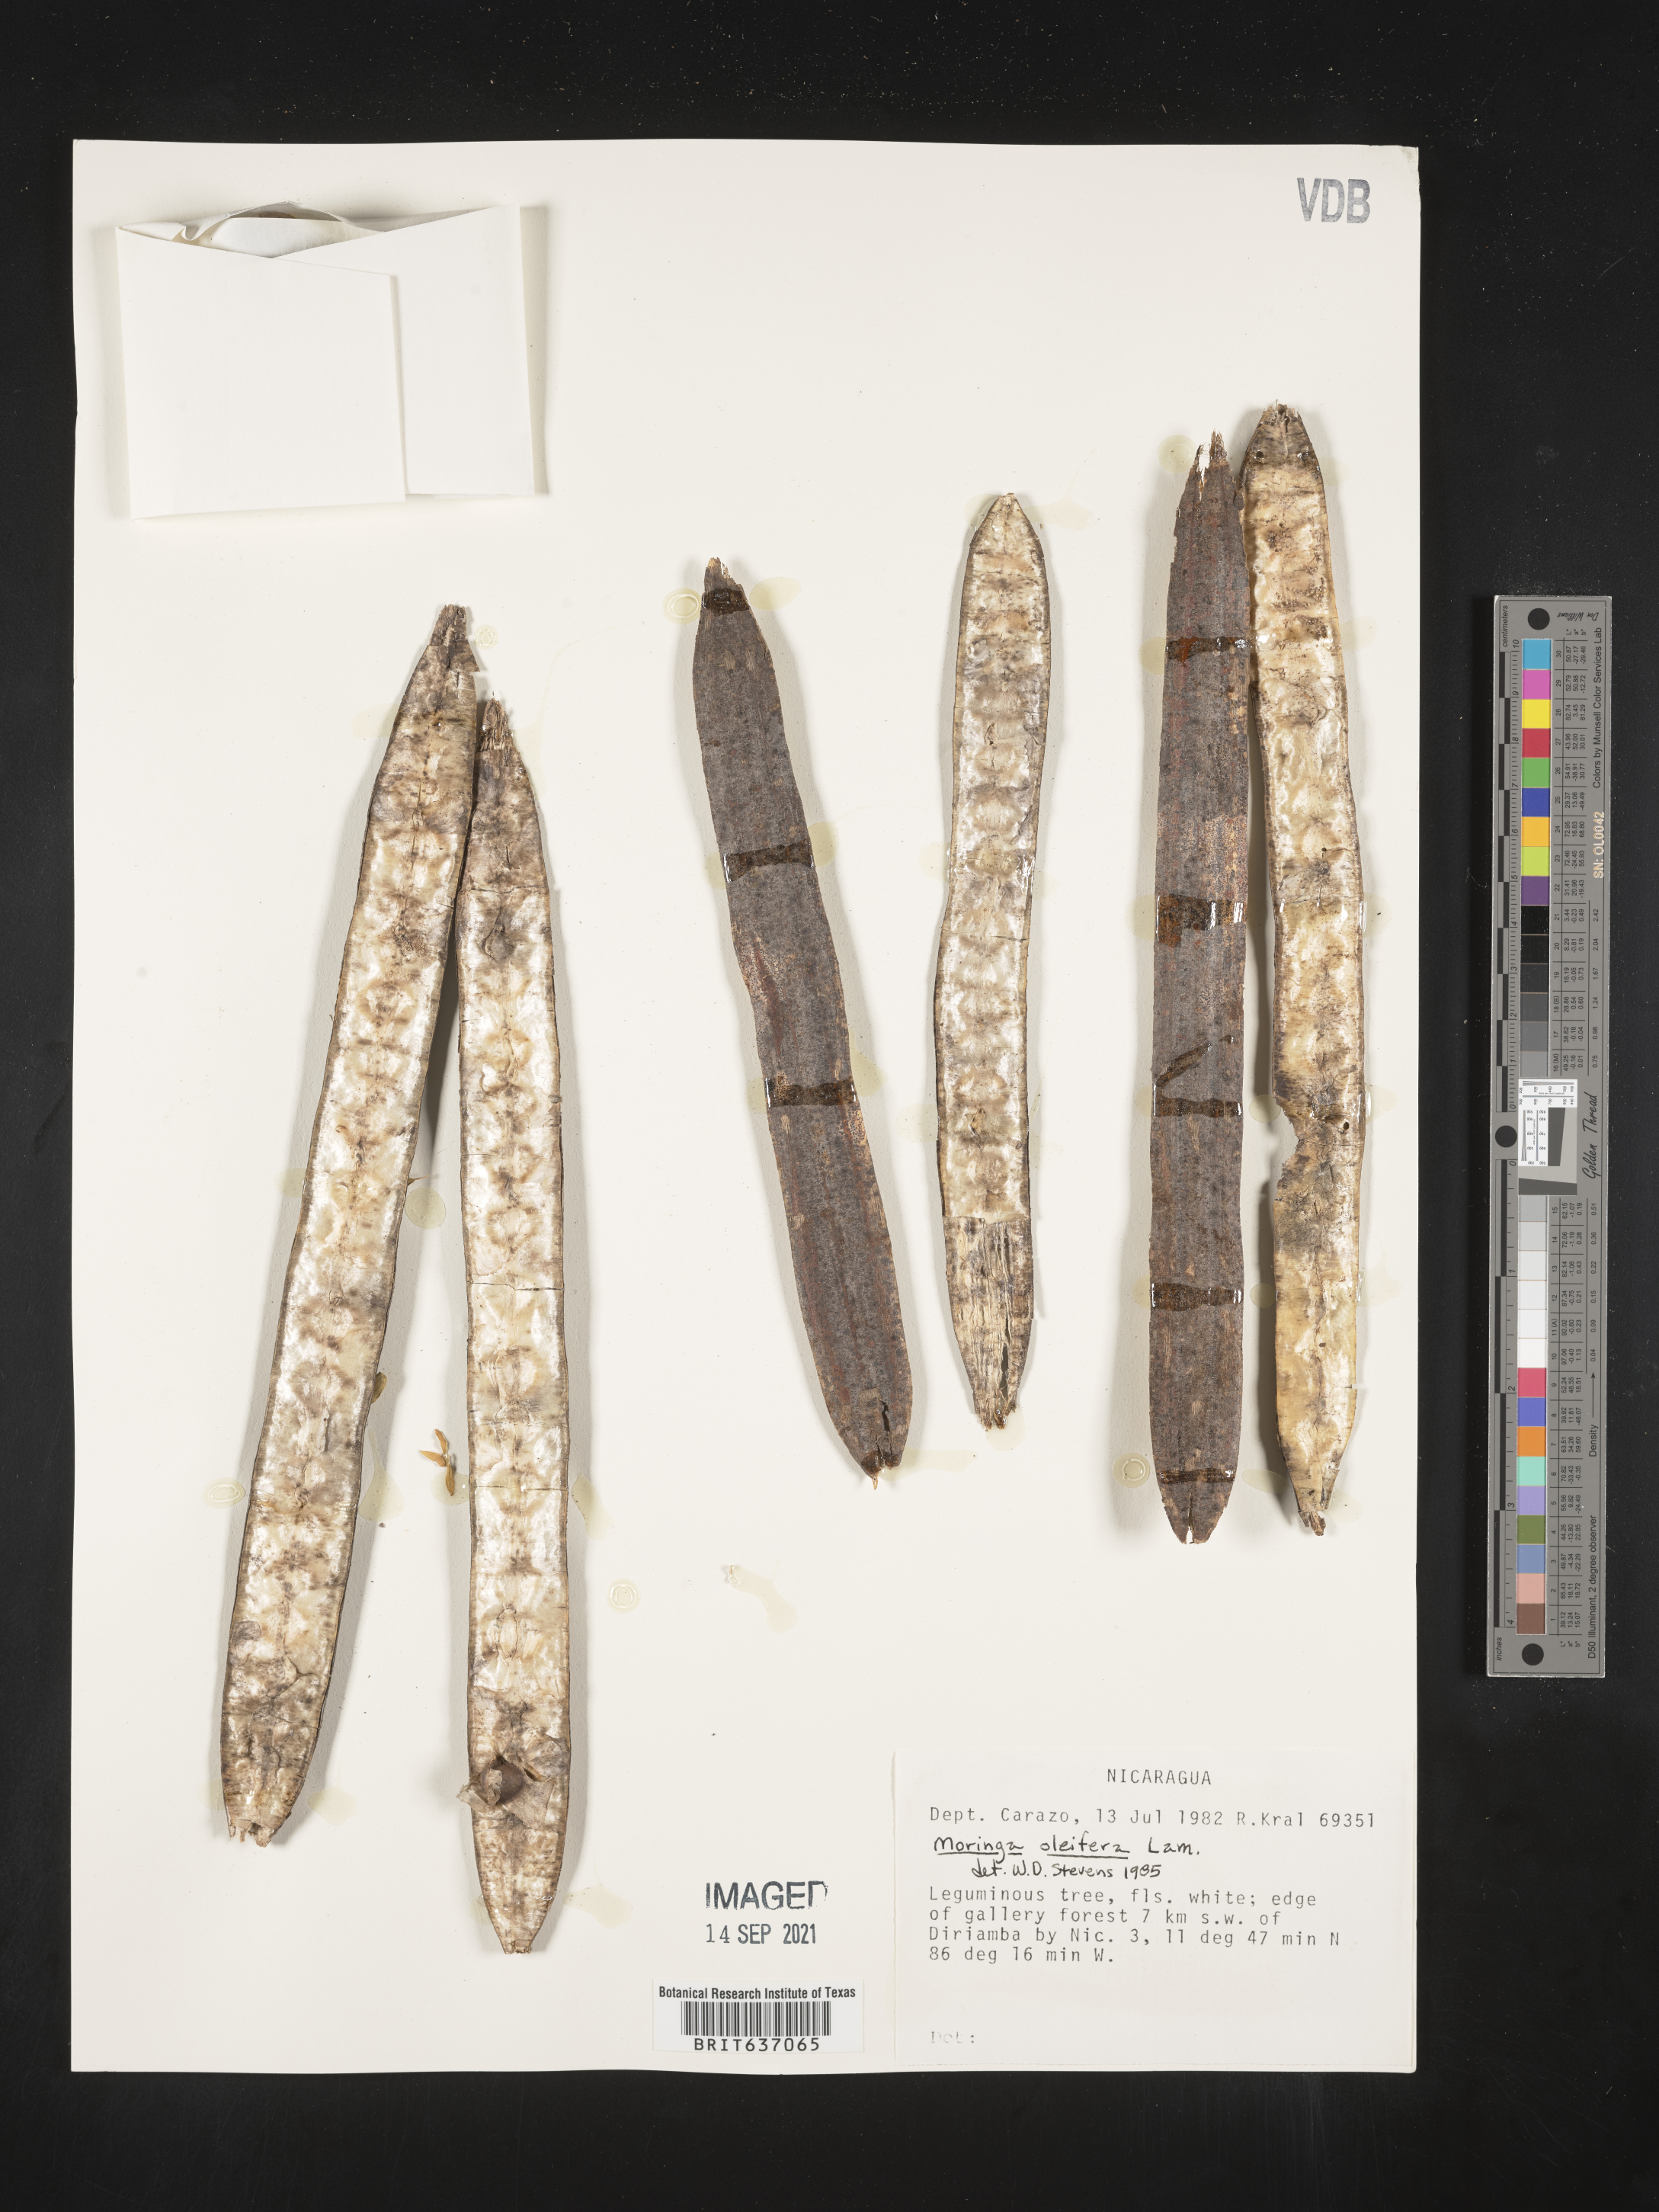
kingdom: Plantae
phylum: Tracheophyta
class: Magnoliopsida
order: Brassicales
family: Moringaceae
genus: Moringa
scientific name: Moringa
